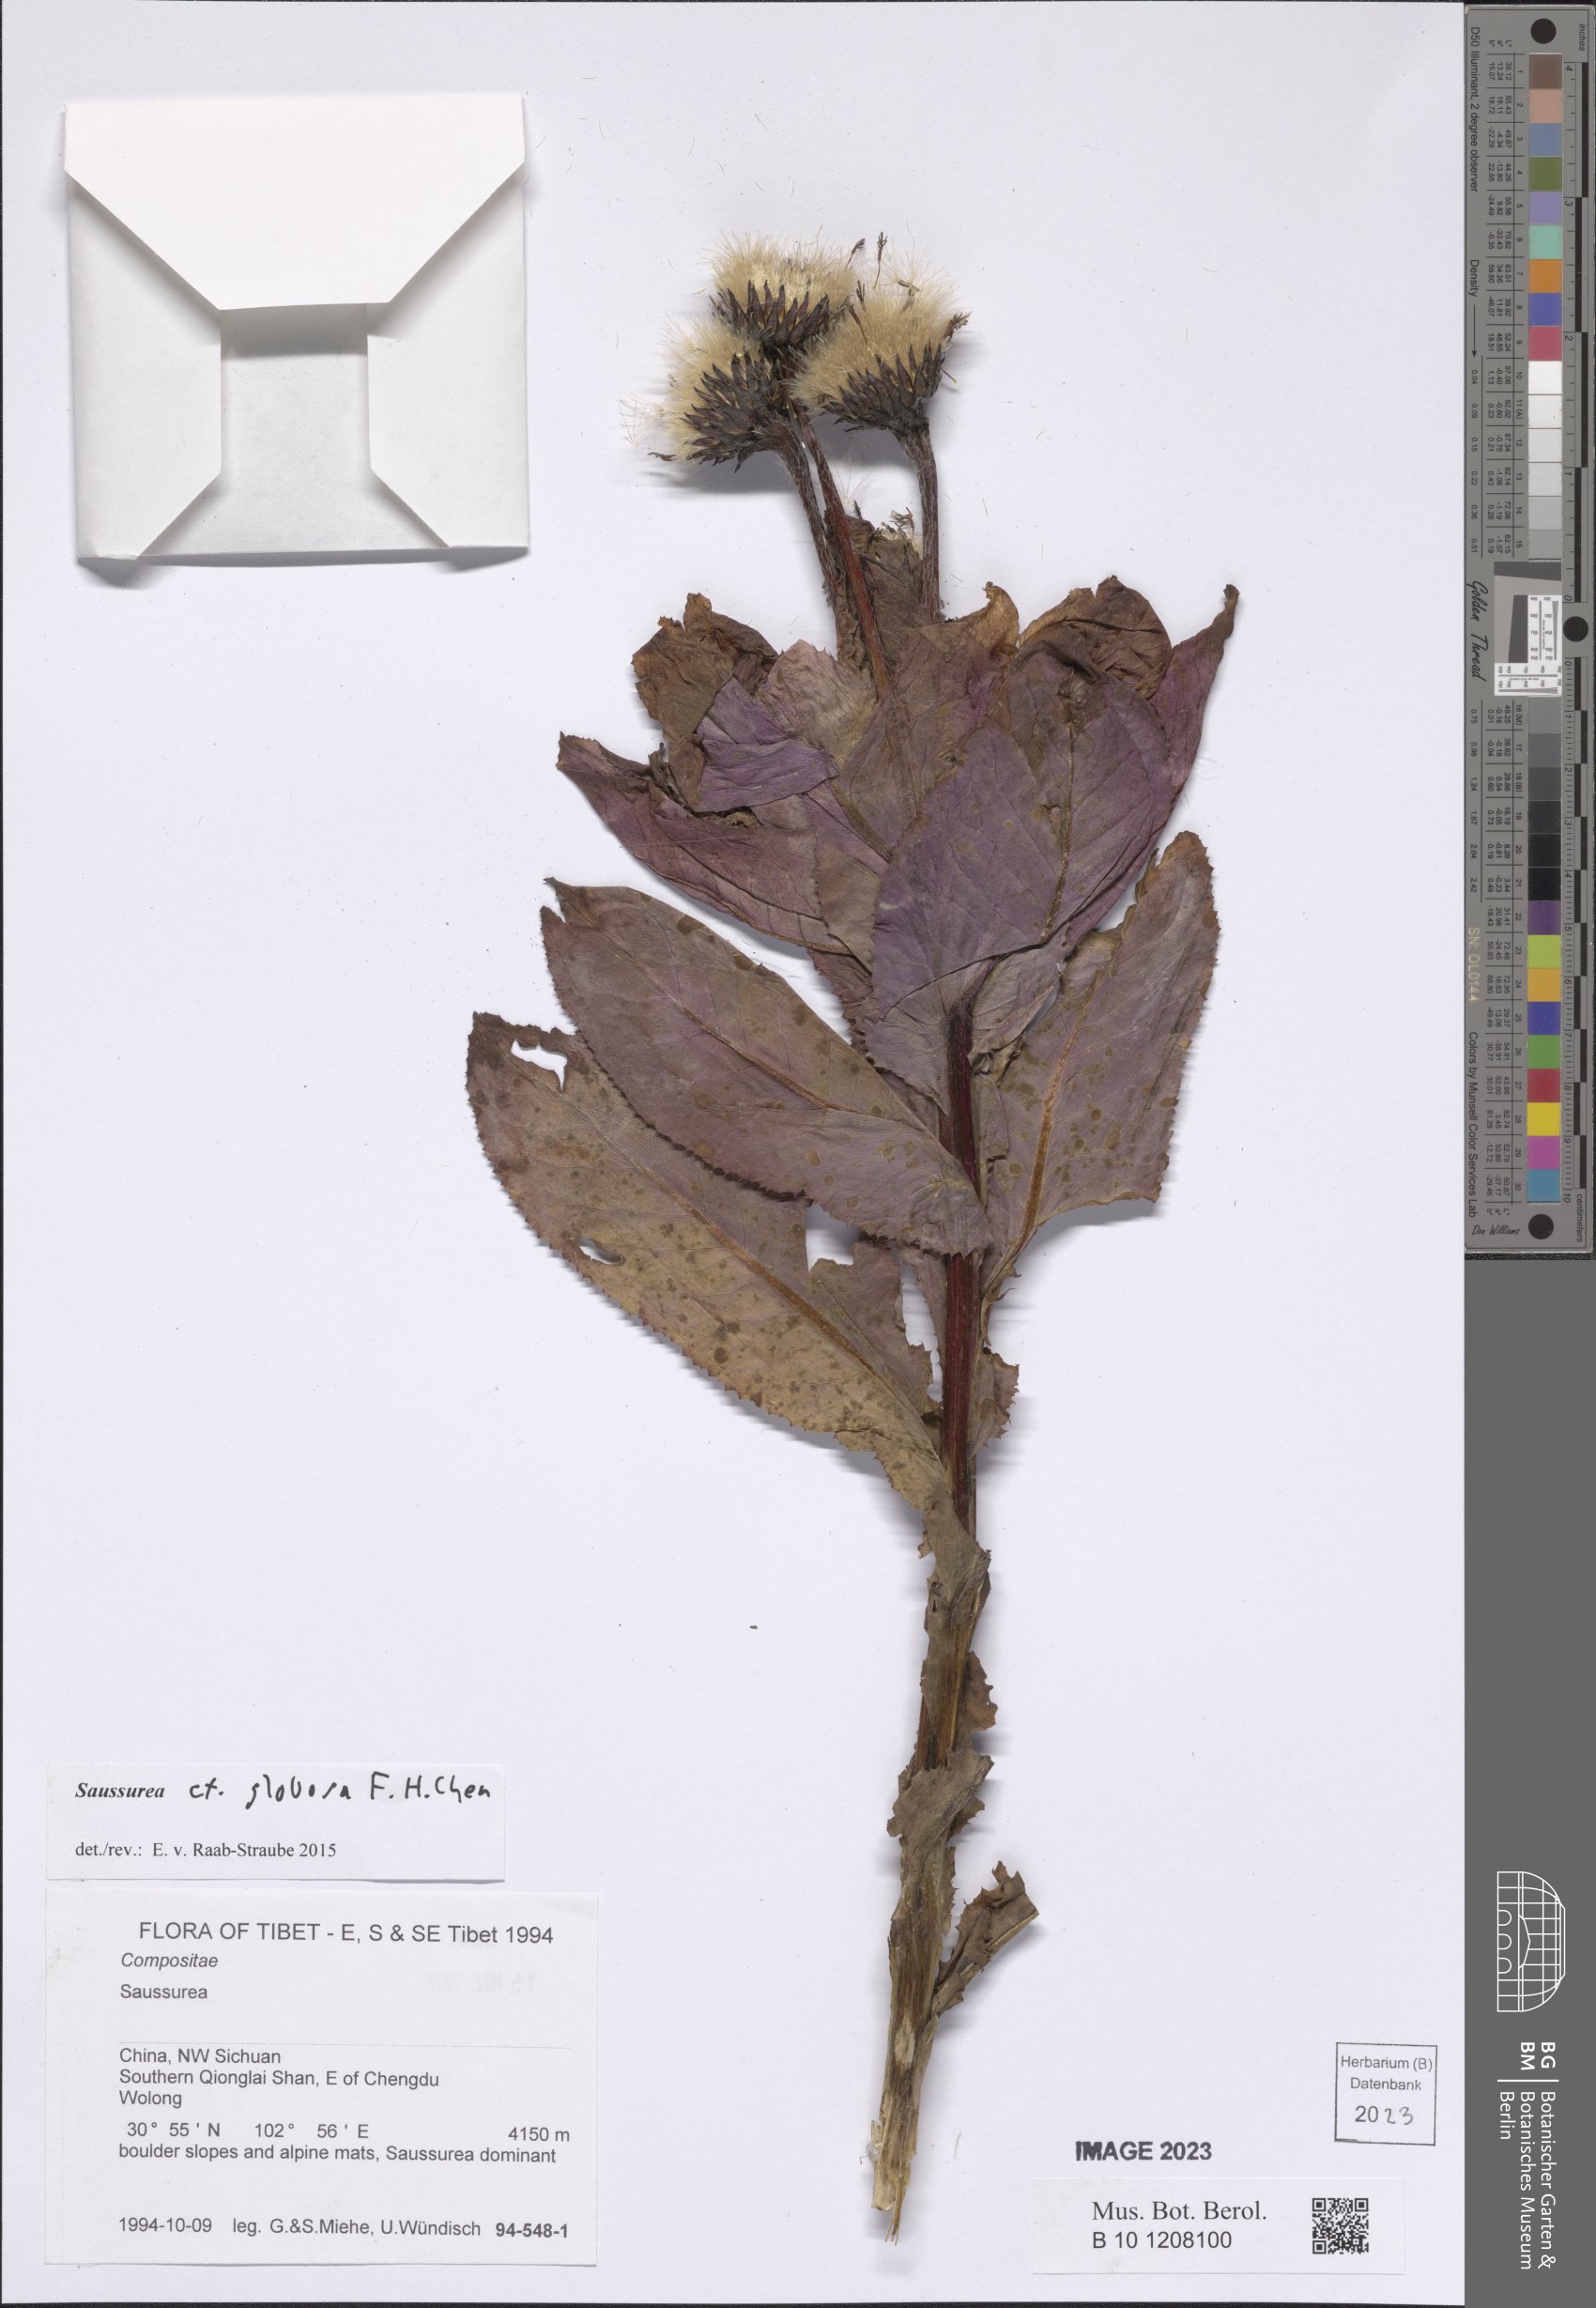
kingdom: Plantae
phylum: Tracheophyta
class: Magnoliopsida
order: Asterales
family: Asteraceae
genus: Saussurea
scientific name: Saussurea globosa
